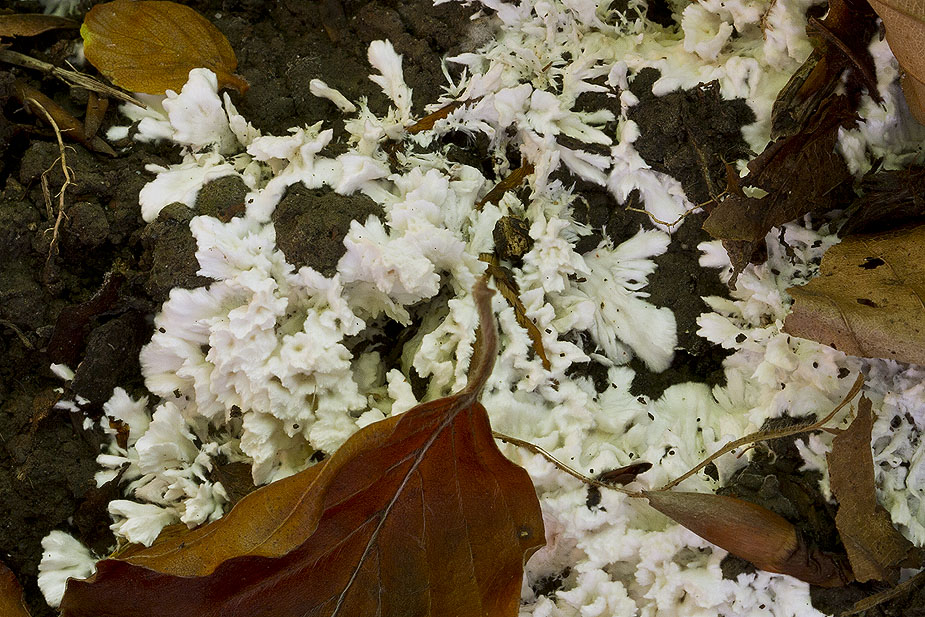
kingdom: Fungi
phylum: Basidiomycota
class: Agaricomycetes
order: Trechisporales
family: Sistotremataceae
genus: Trechispora
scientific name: Trechispora fastidiosa
